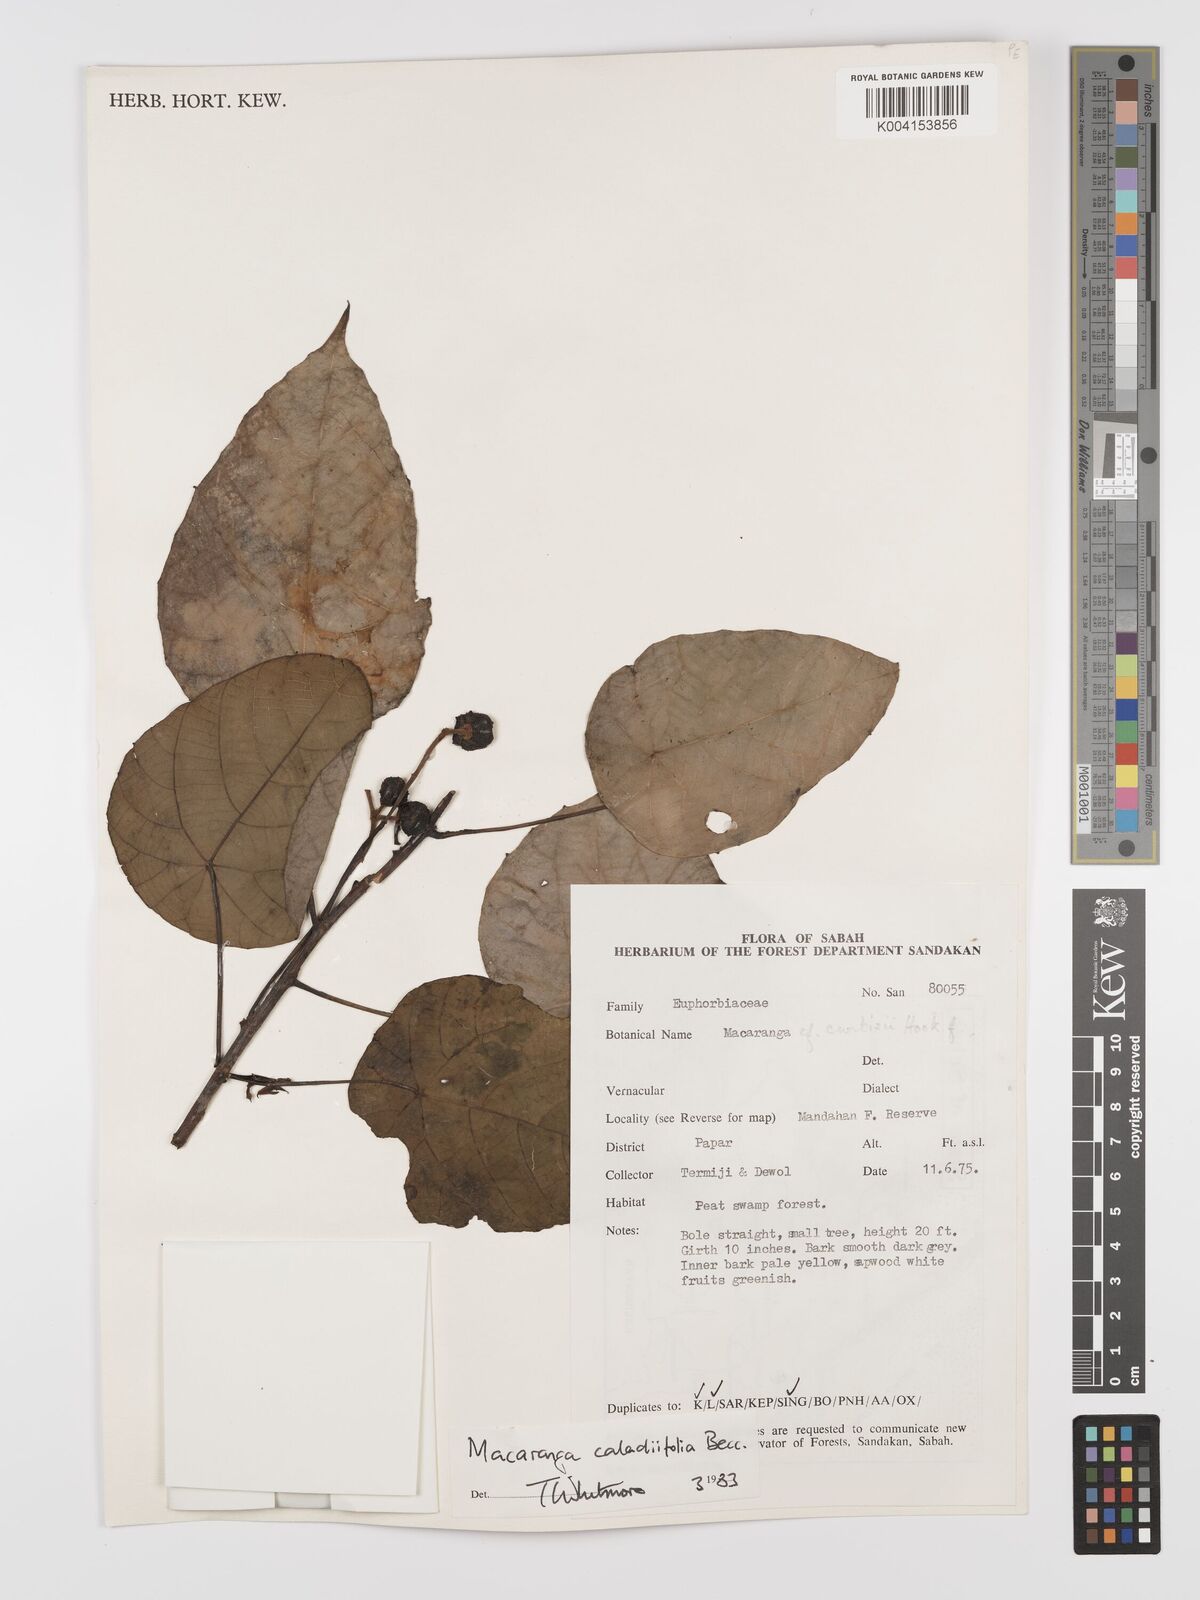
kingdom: Plantae
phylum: Tracheophyta
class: Magnoliopsida
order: Malpighiales
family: Euphorbiaceae
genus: Macaranga
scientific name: Macaranga caladiifolia
